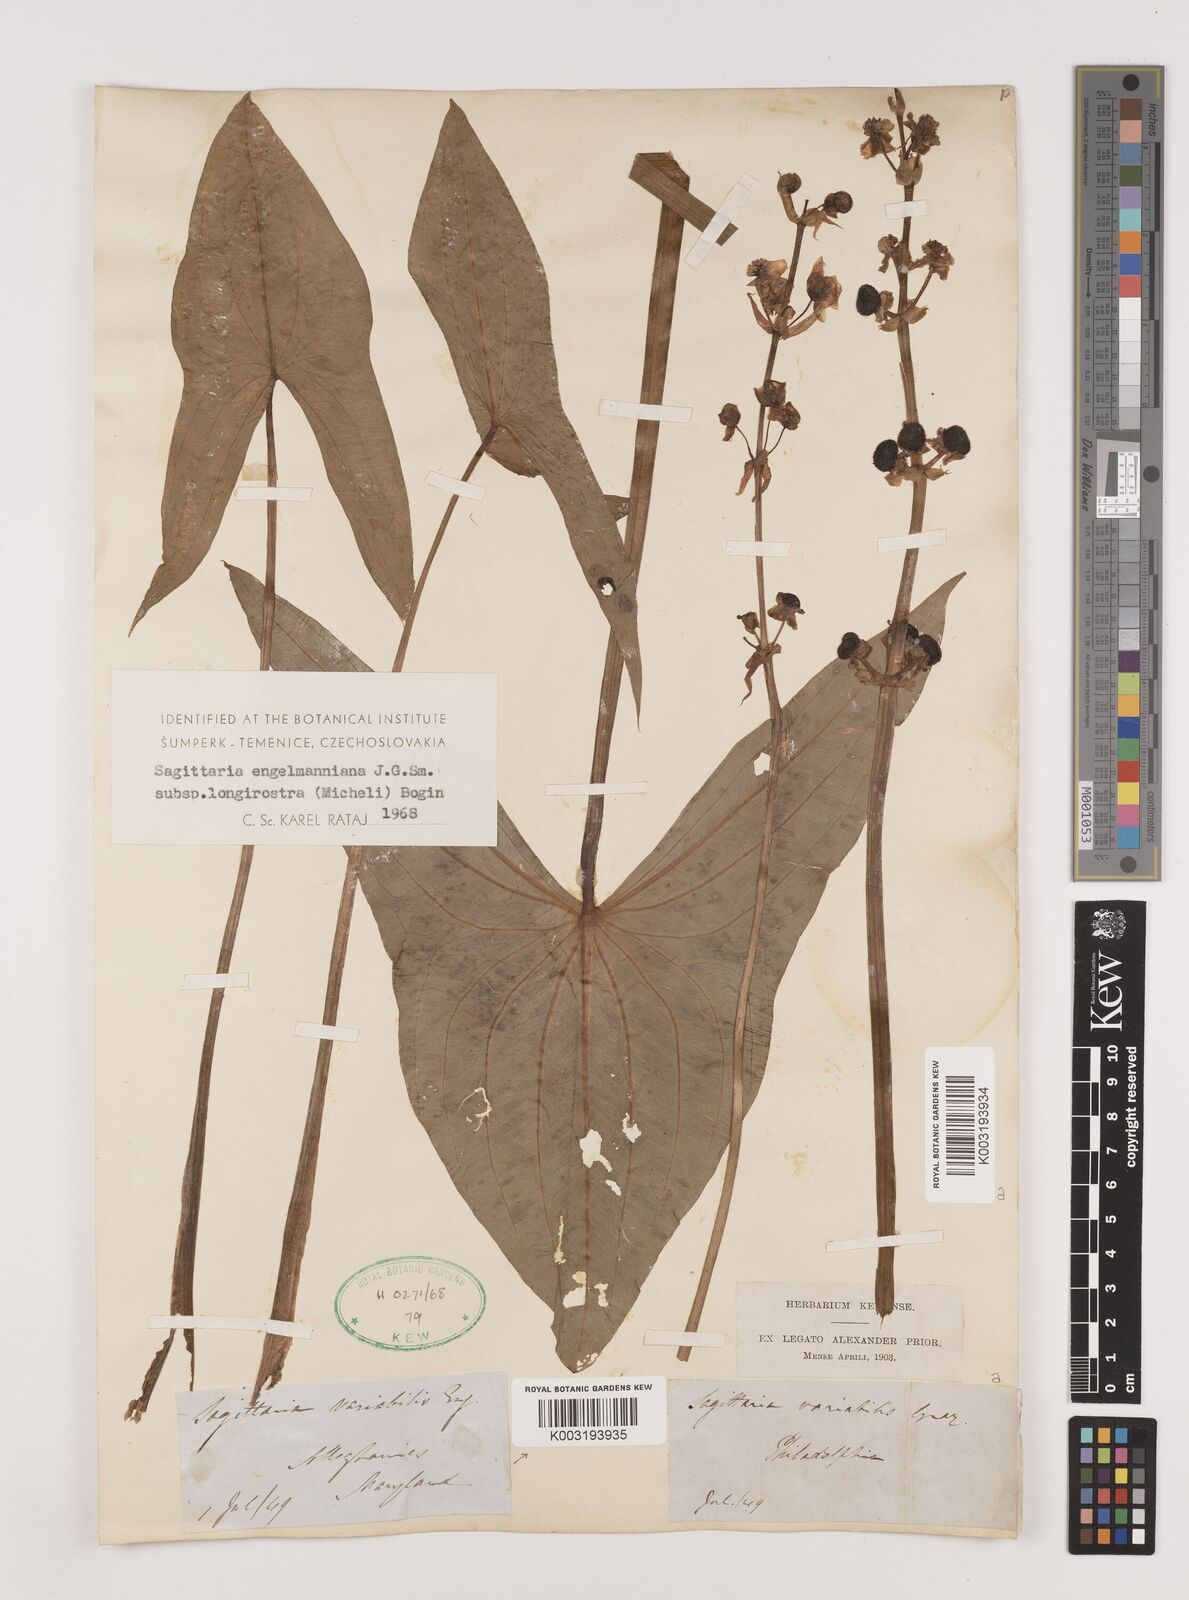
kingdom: Plantae
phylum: Tracheophyta
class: Liliopsida
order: Alismatales
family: Alismataceae
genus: Sagittaria
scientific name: Sagittaria engelmanniana
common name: Acid-water arrowhead
